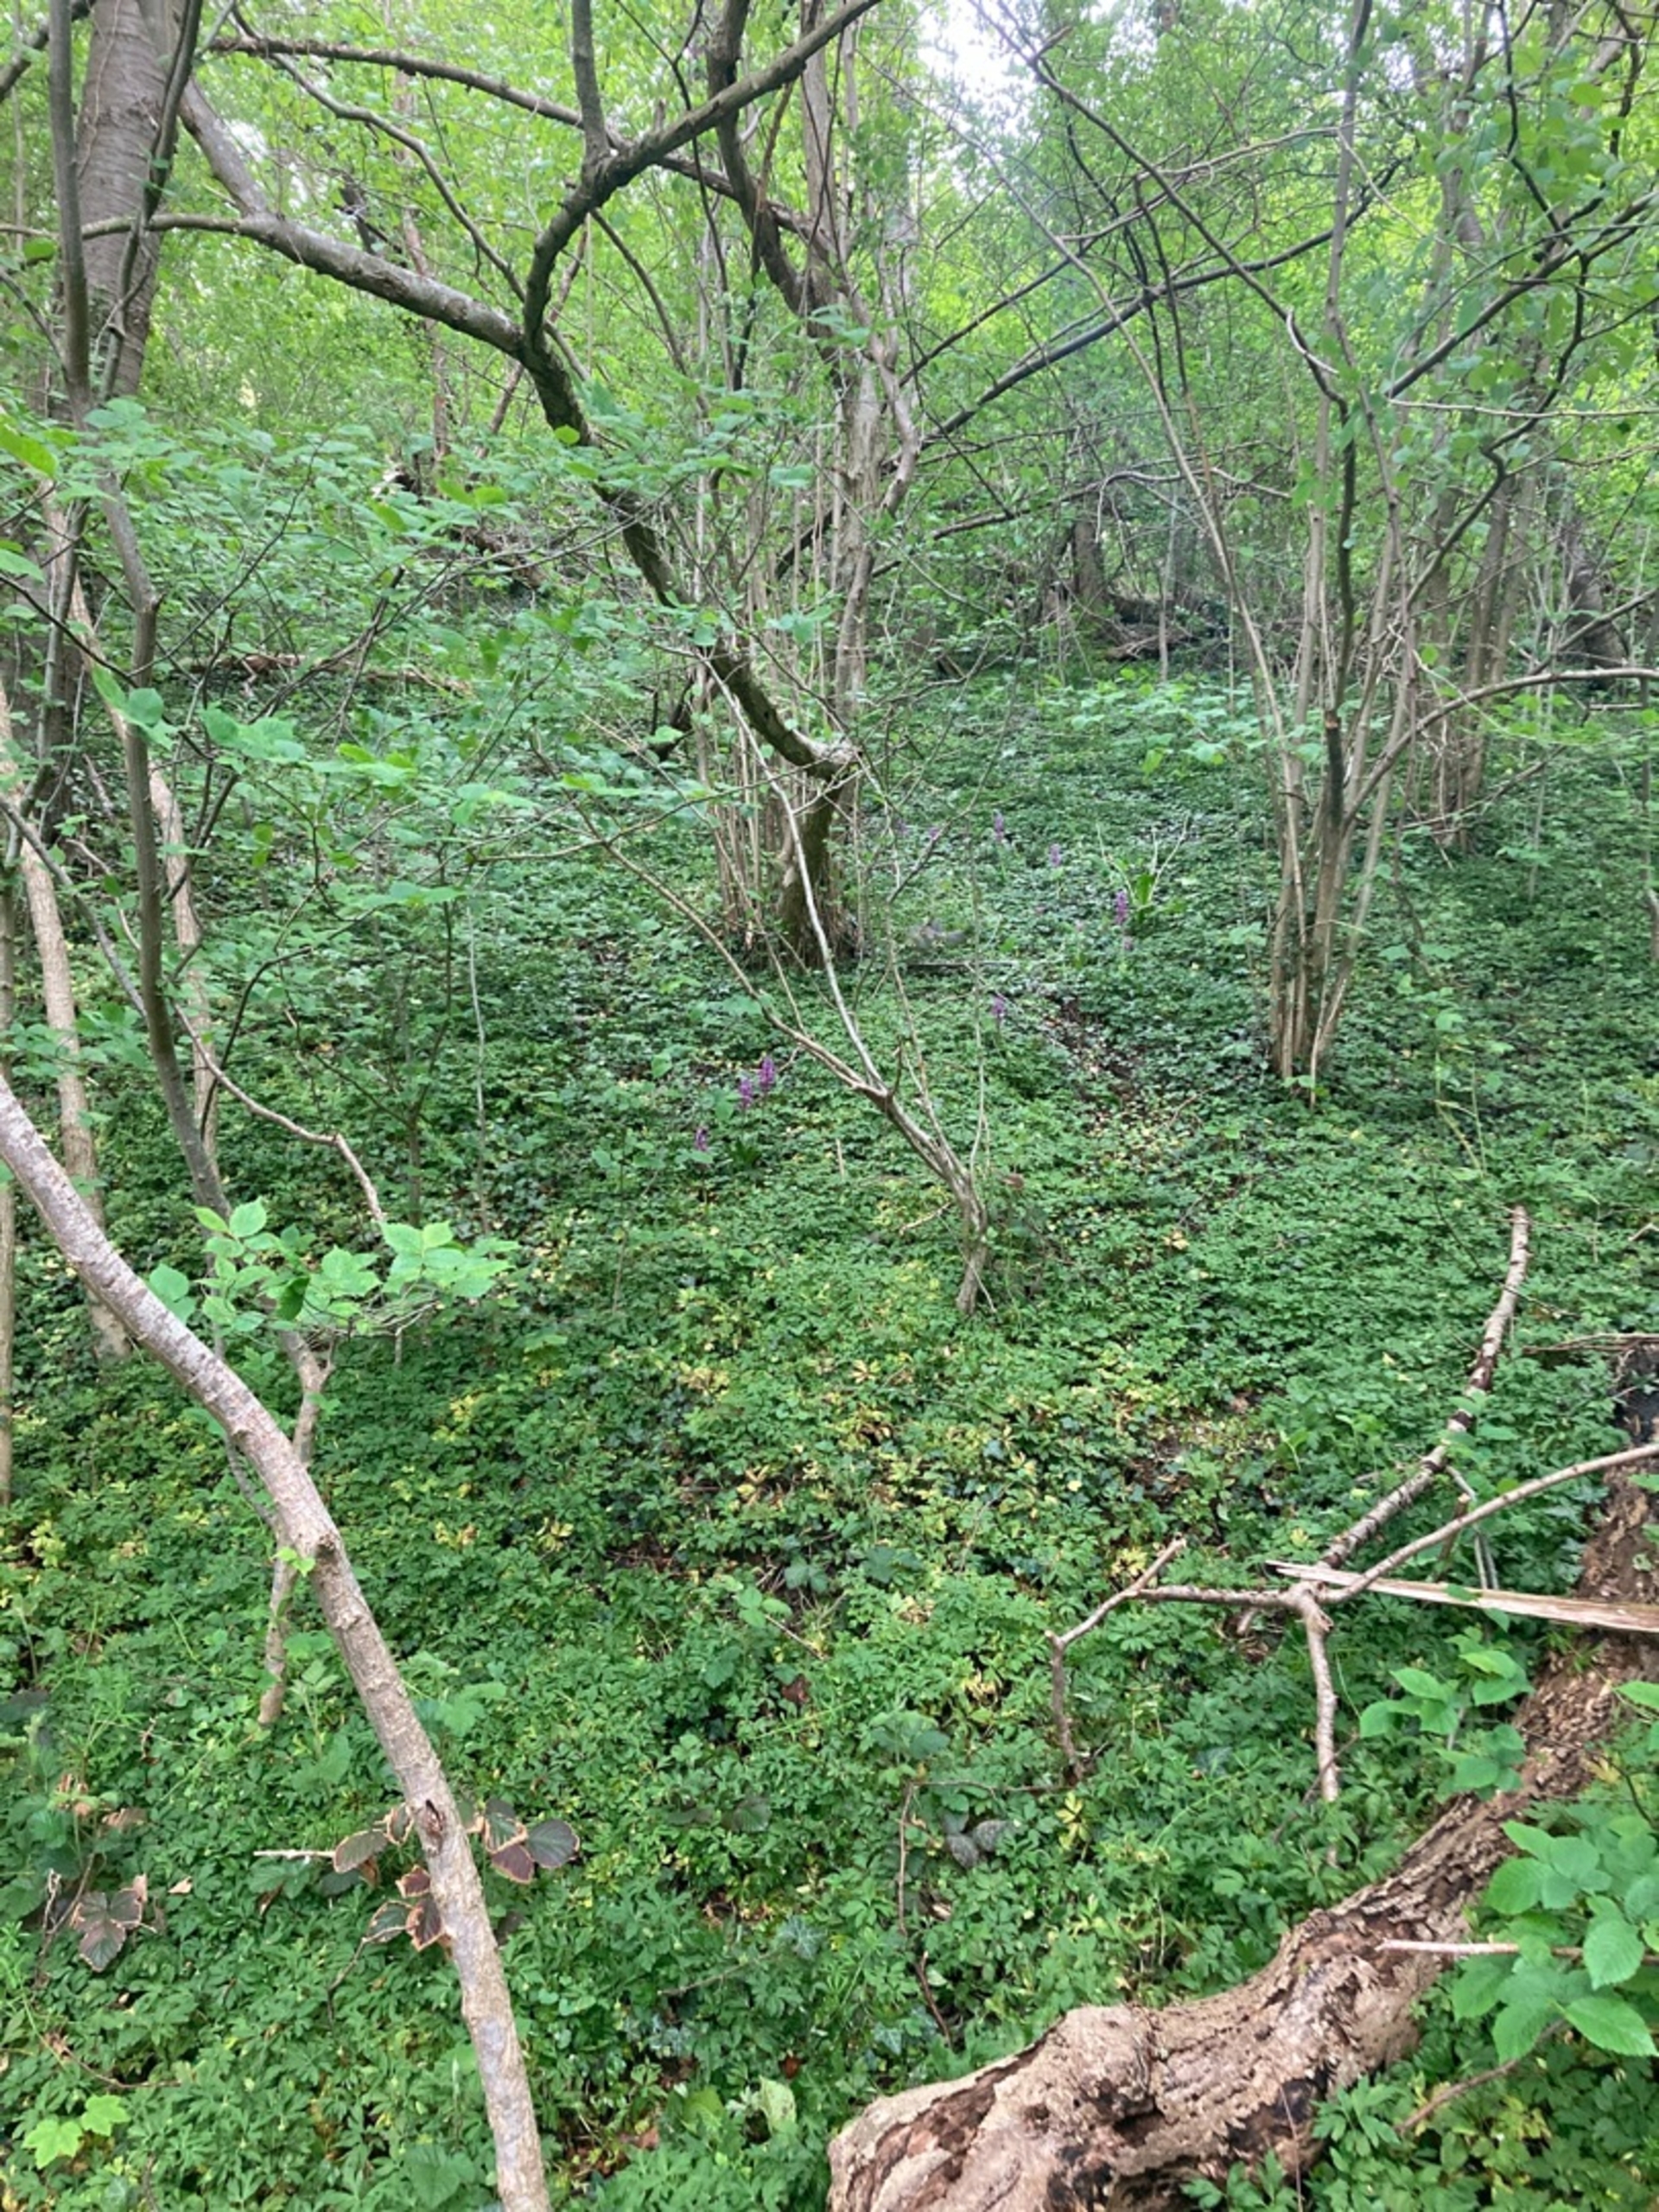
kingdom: Plantae
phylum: Tracheophyta
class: Liliopsida
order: Asparagales
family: Orchidaceae
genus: Orchis
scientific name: Orchis mascula
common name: Tyndakset gøgeurt
